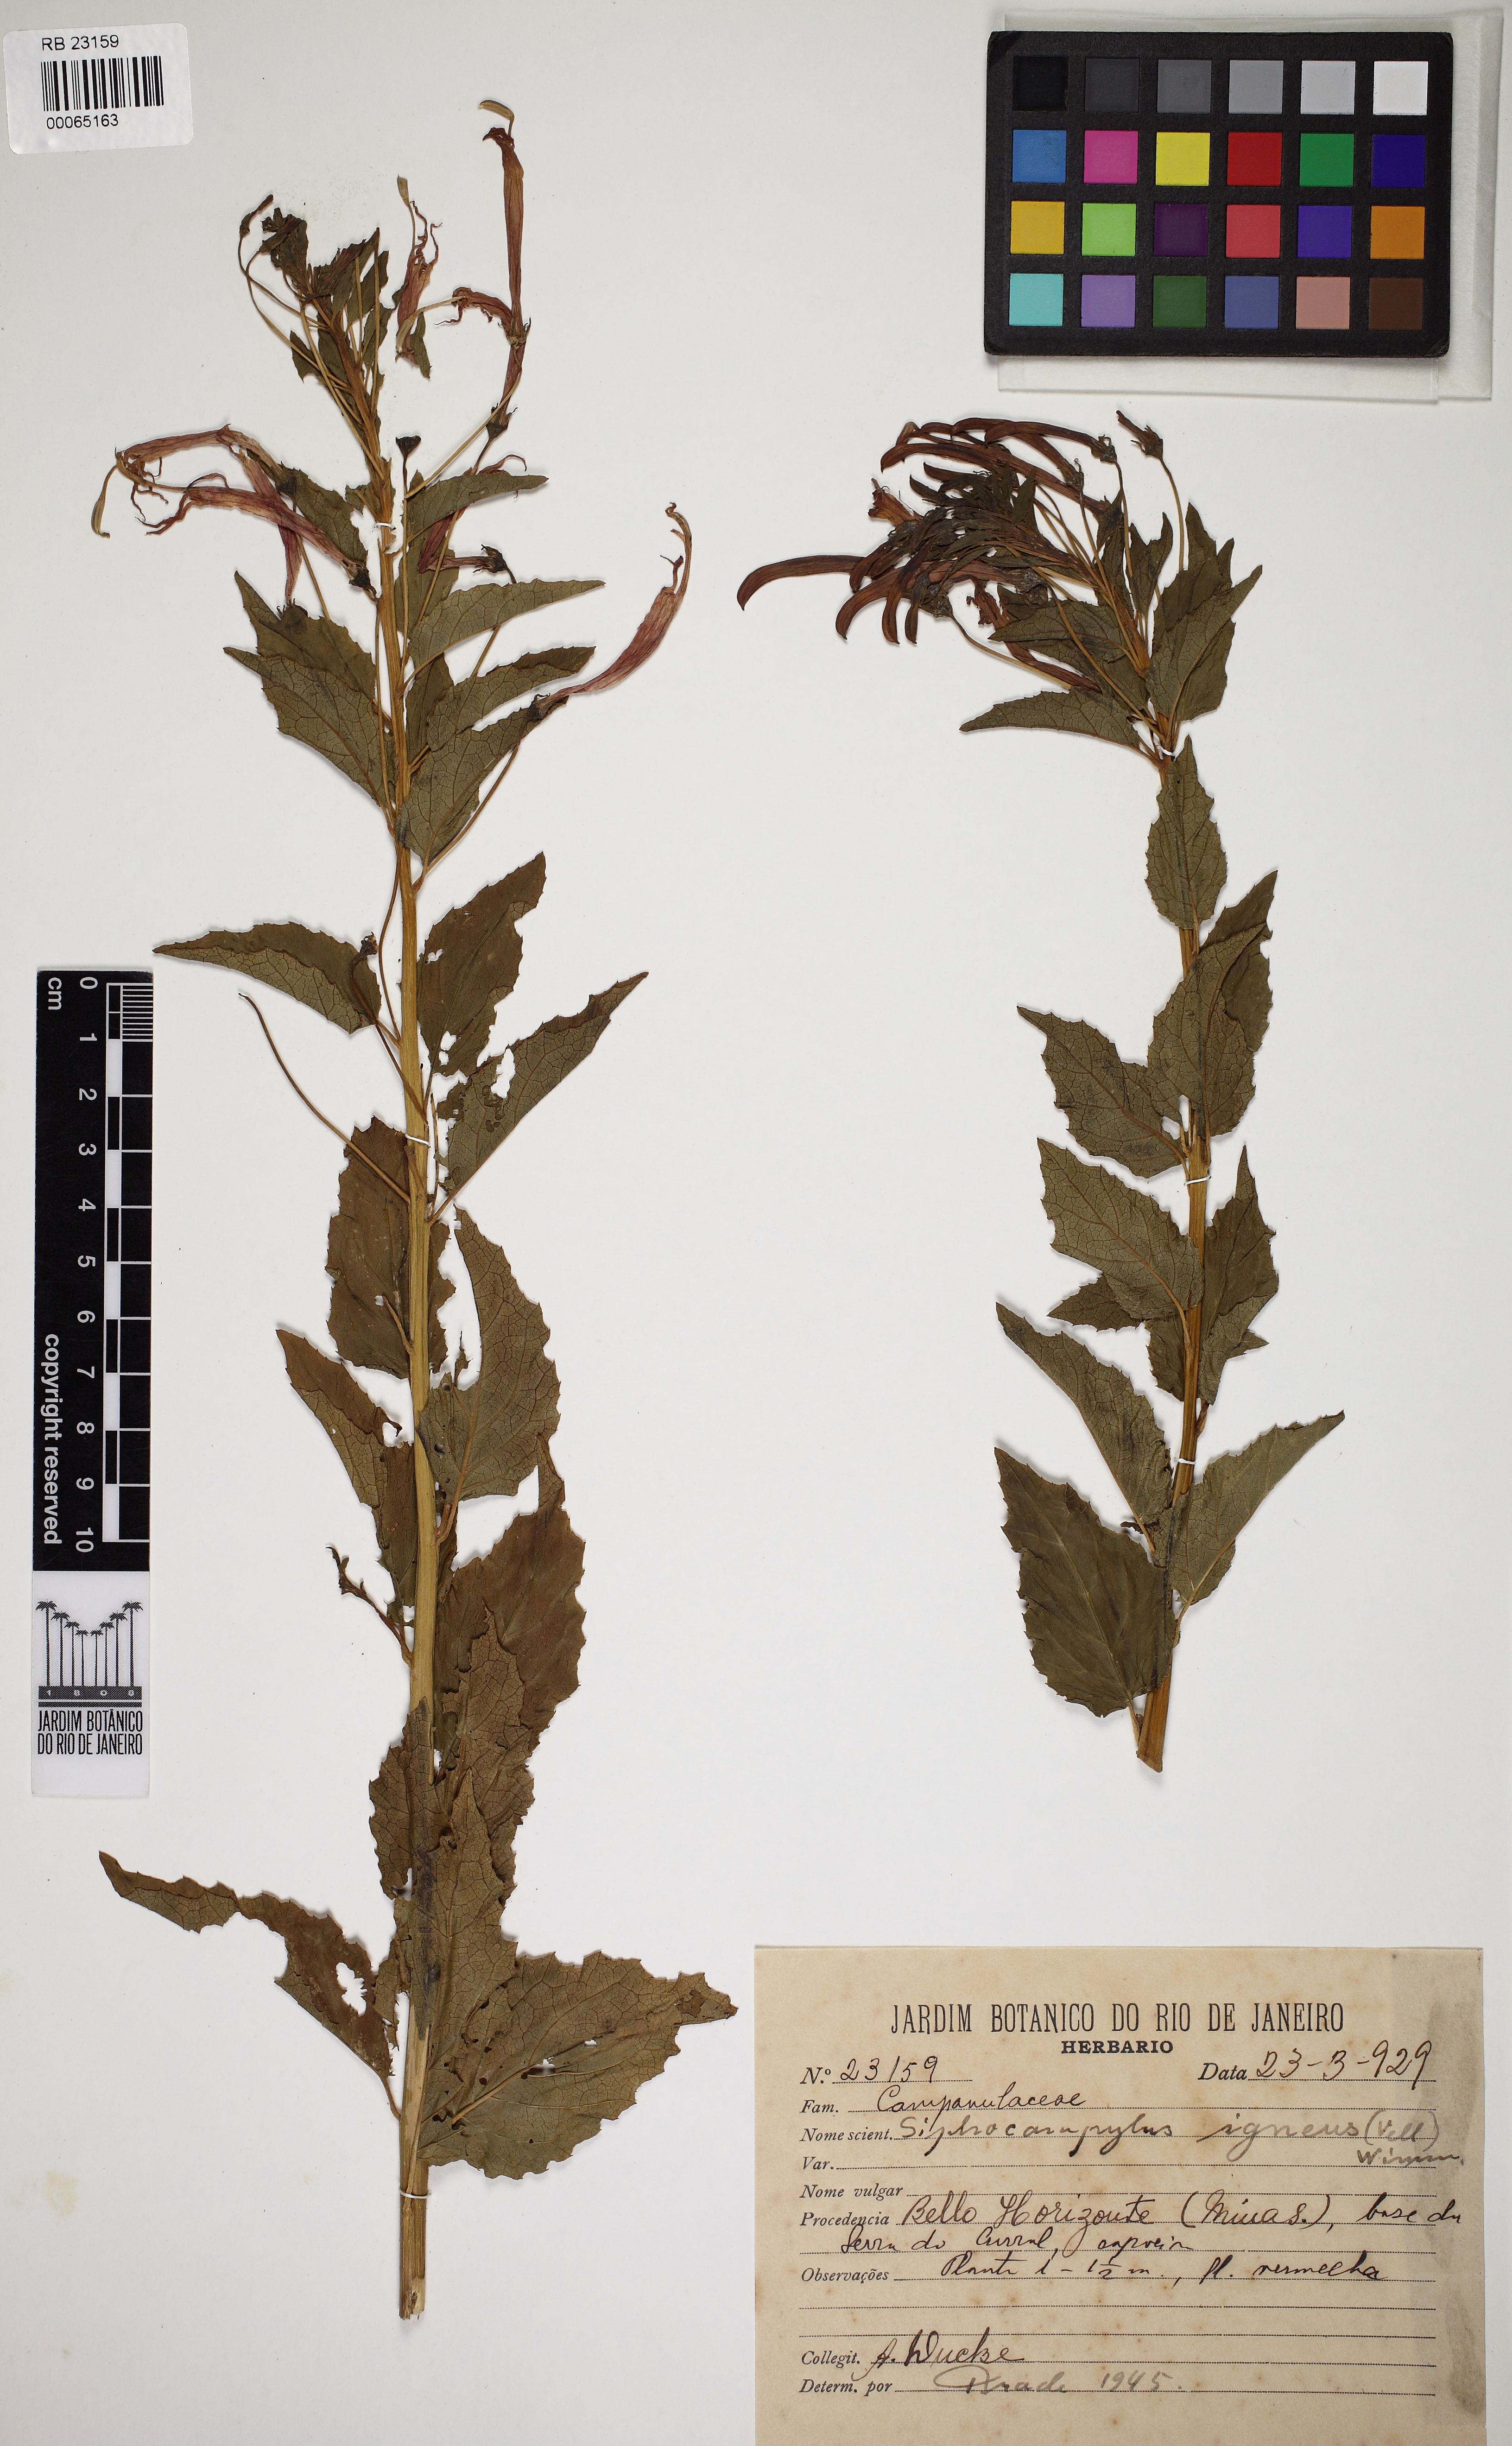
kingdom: Plantae
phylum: Tracheophyta
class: Magnoliopsida
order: Asterales
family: Campanulaceae
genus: Siphocampylus
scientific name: Siphocampylus corymbifer
